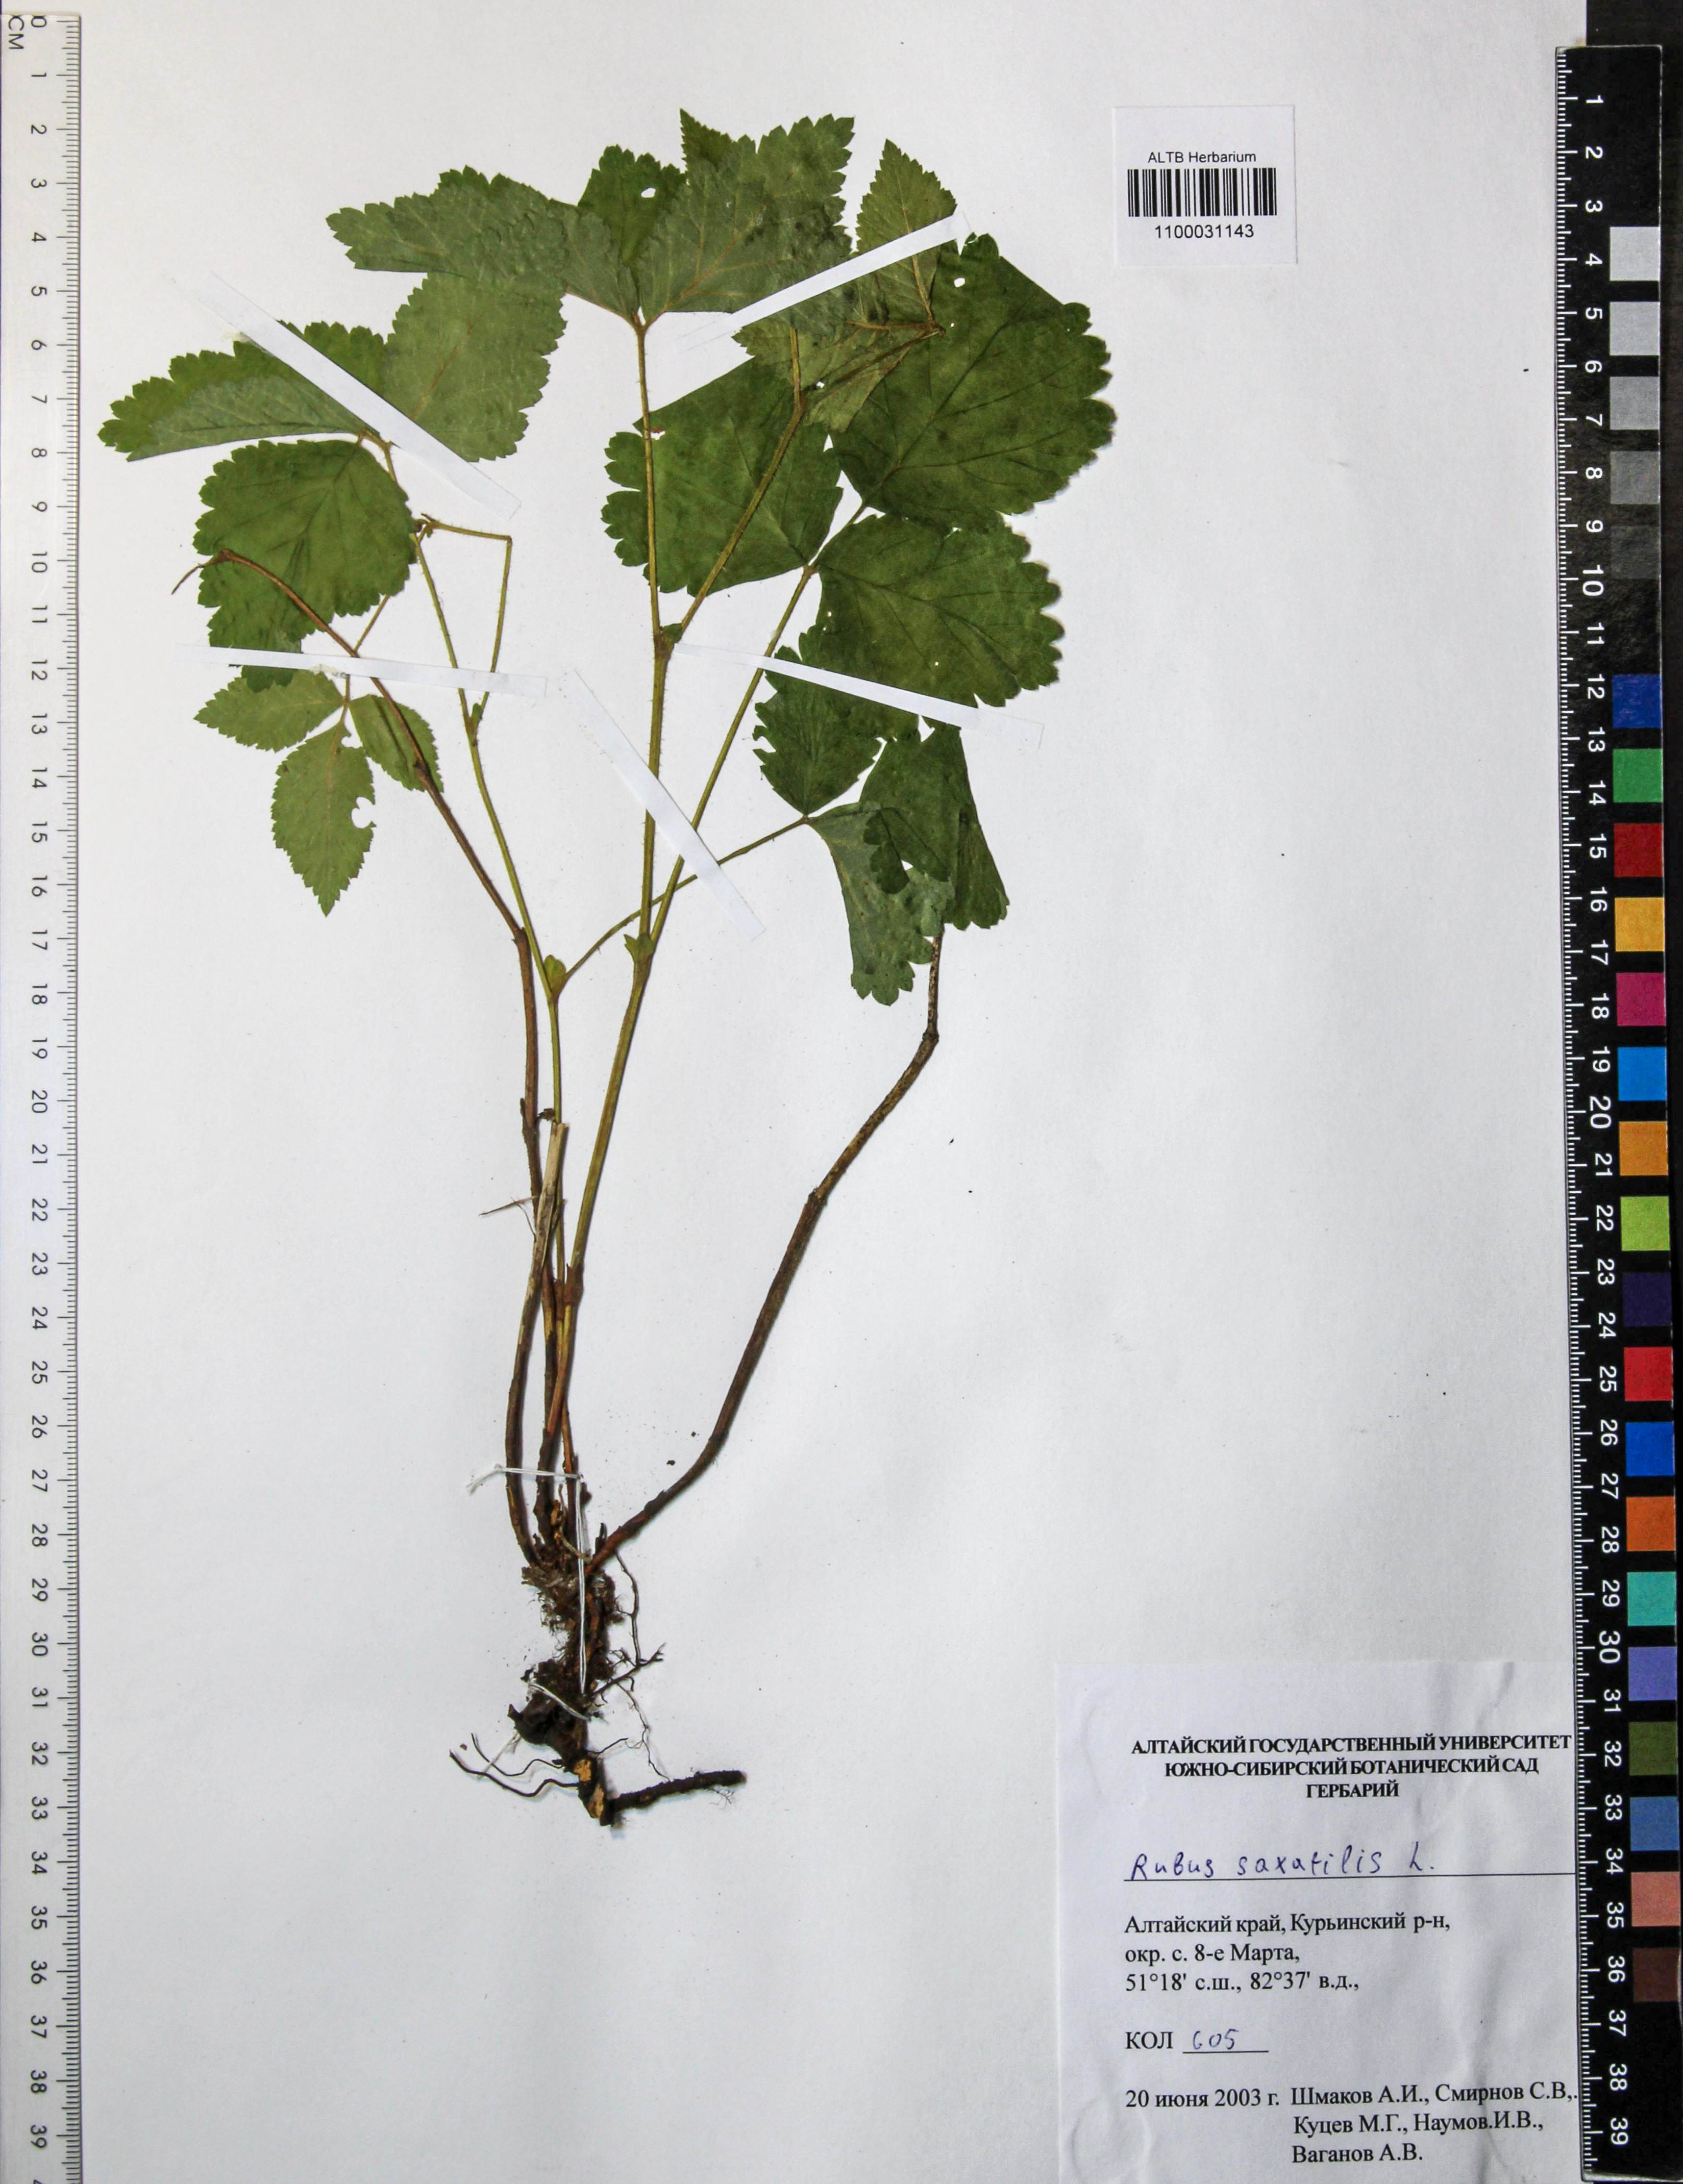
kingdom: Plantae
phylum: Tracheophyta
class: Magnoliopsida
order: Rosales
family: Rosaceae
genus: Rubus
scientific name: Rubus saxatilis
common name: Stone bramble
